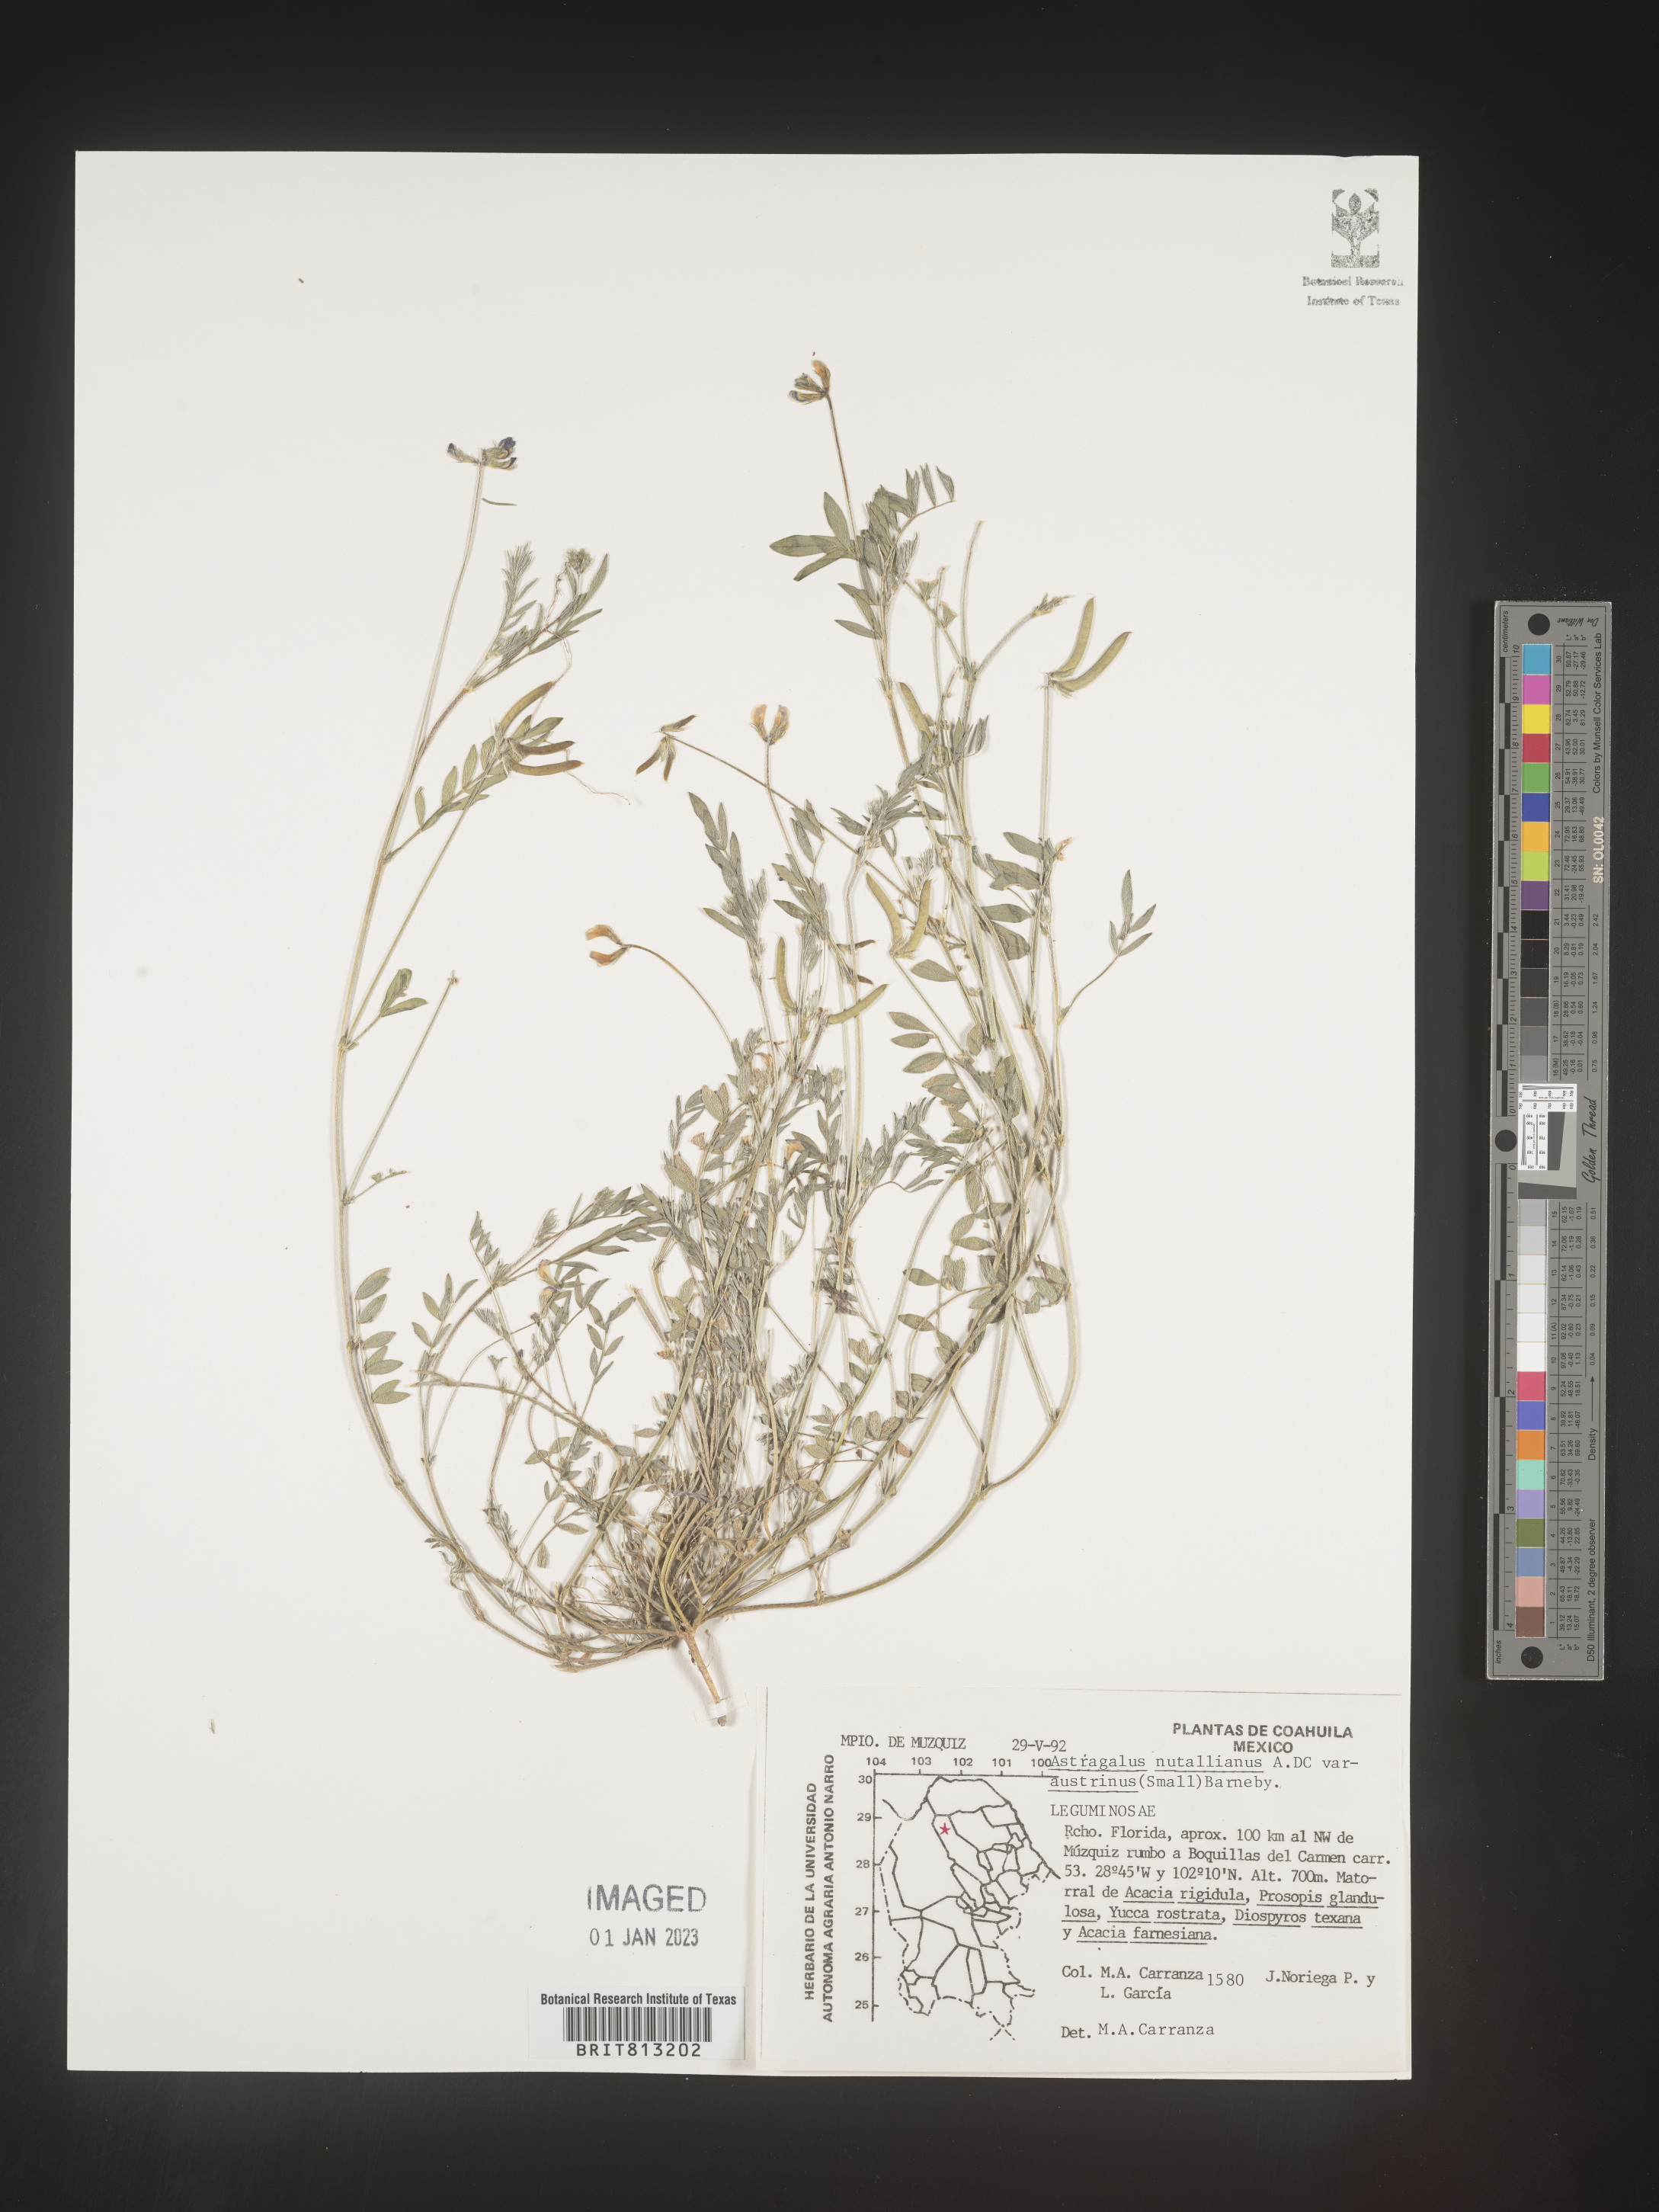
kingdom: Plantae
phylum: Tracheophyta
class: Magnoliopsida
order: Fabales
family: Fabaceae
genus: Astragalus
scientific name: Astragalus
